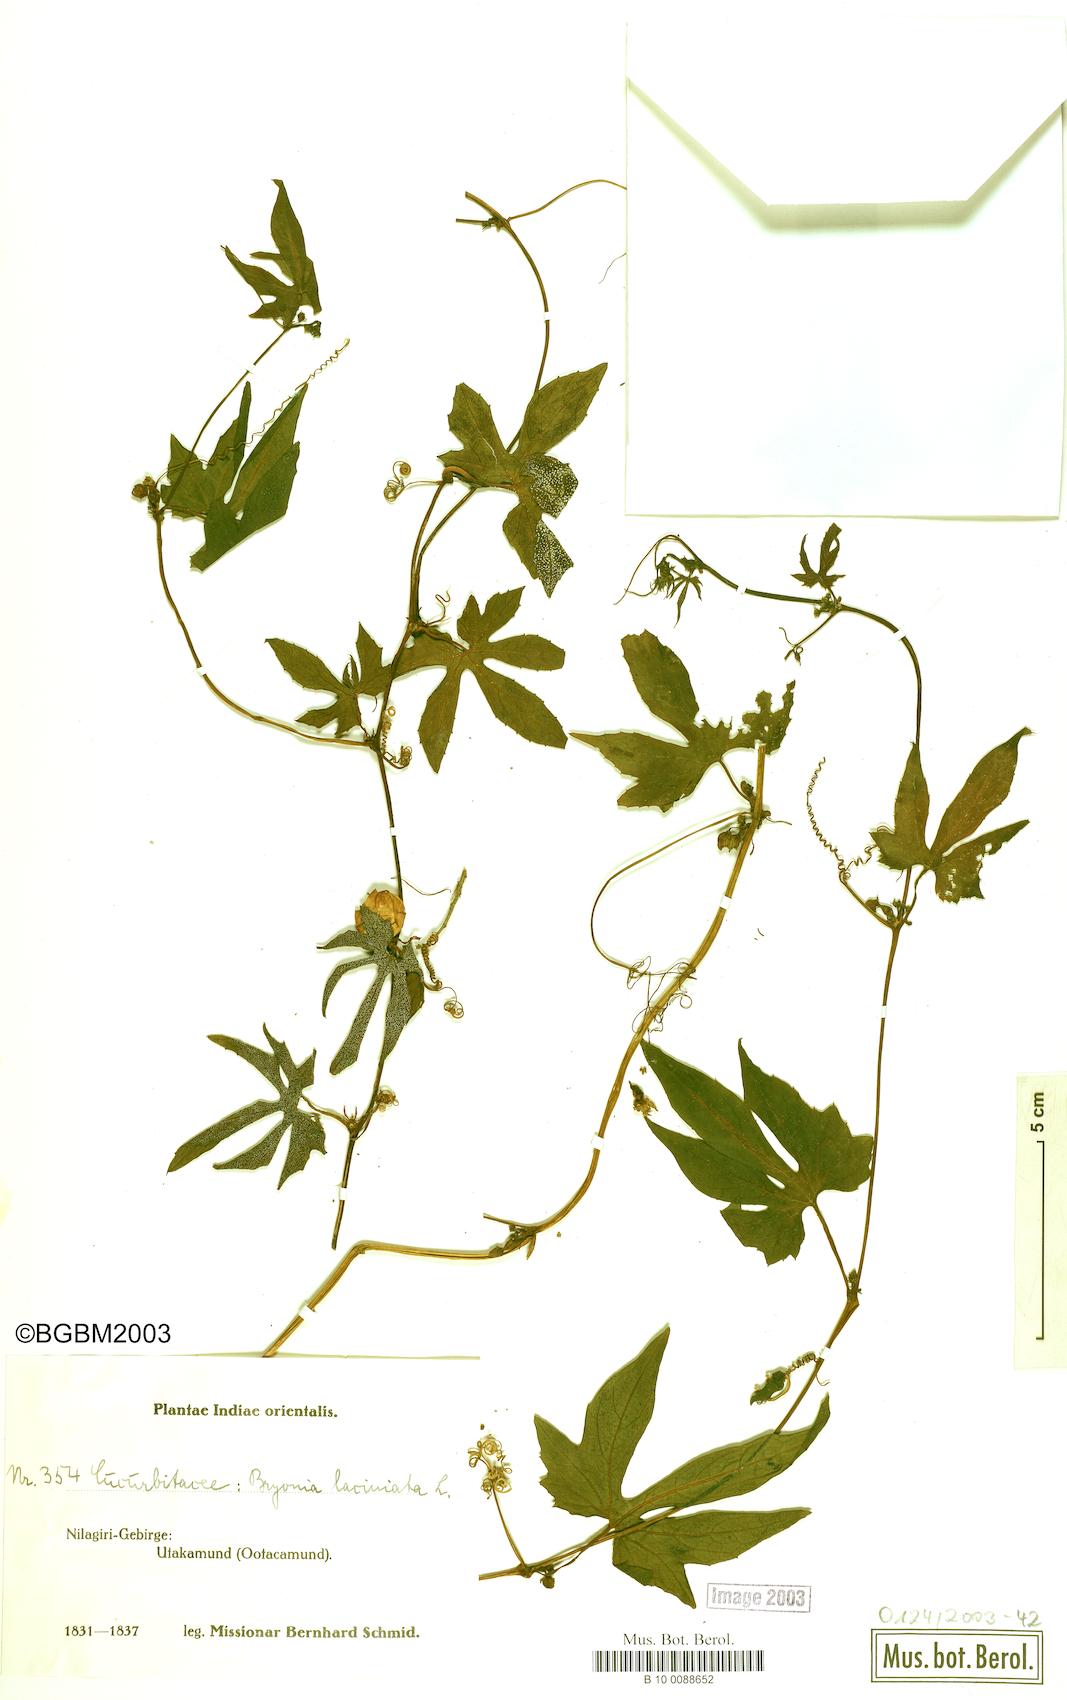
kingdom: Plantae
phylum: Tracheophyta
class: Magnoliopsida
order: Cucurbitales
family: Cucurbitaceae
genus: Diplocyclos
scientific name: Diplocyclos palmatus
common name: Striped-cucumber
